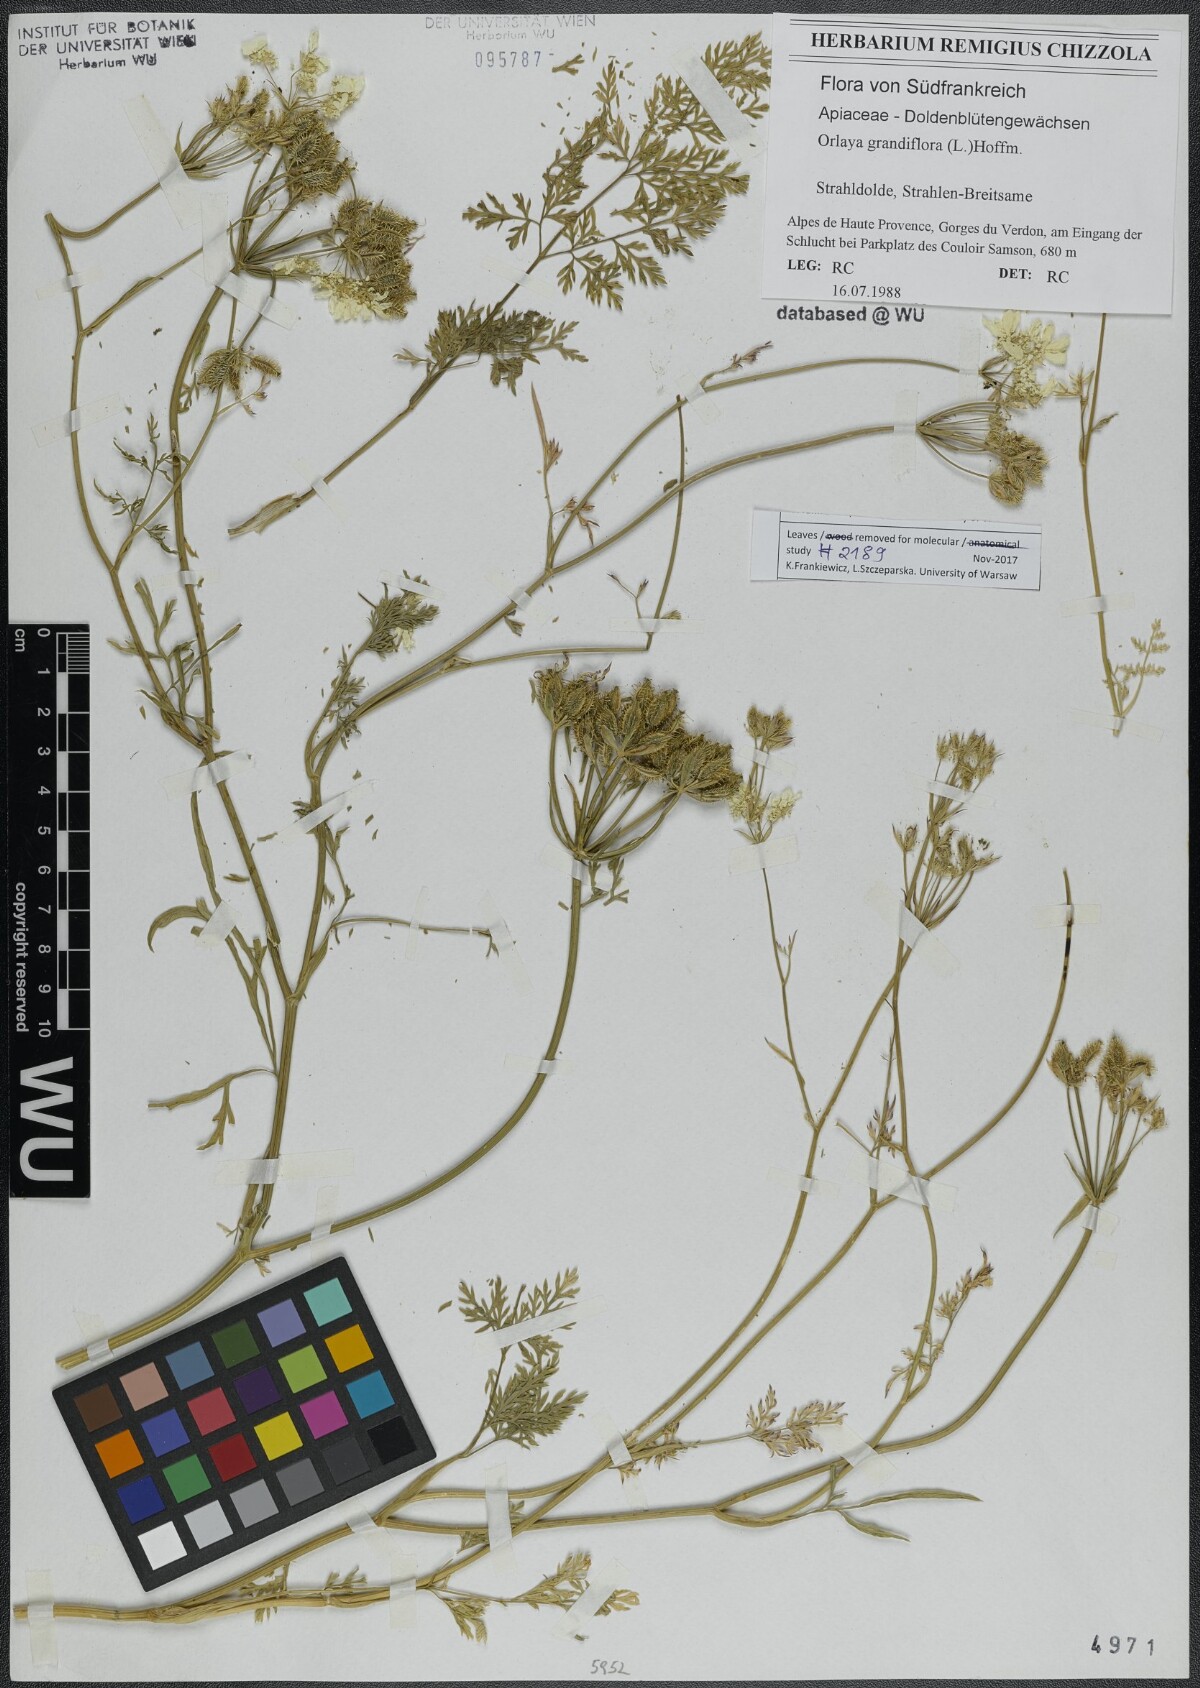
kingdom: Plantae
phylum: Tracheophyta
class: Magnoliopsida
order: Apiales
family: Apiaceae
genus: Orlaya
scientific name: Orlaya grandiflora
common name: White lace flower
